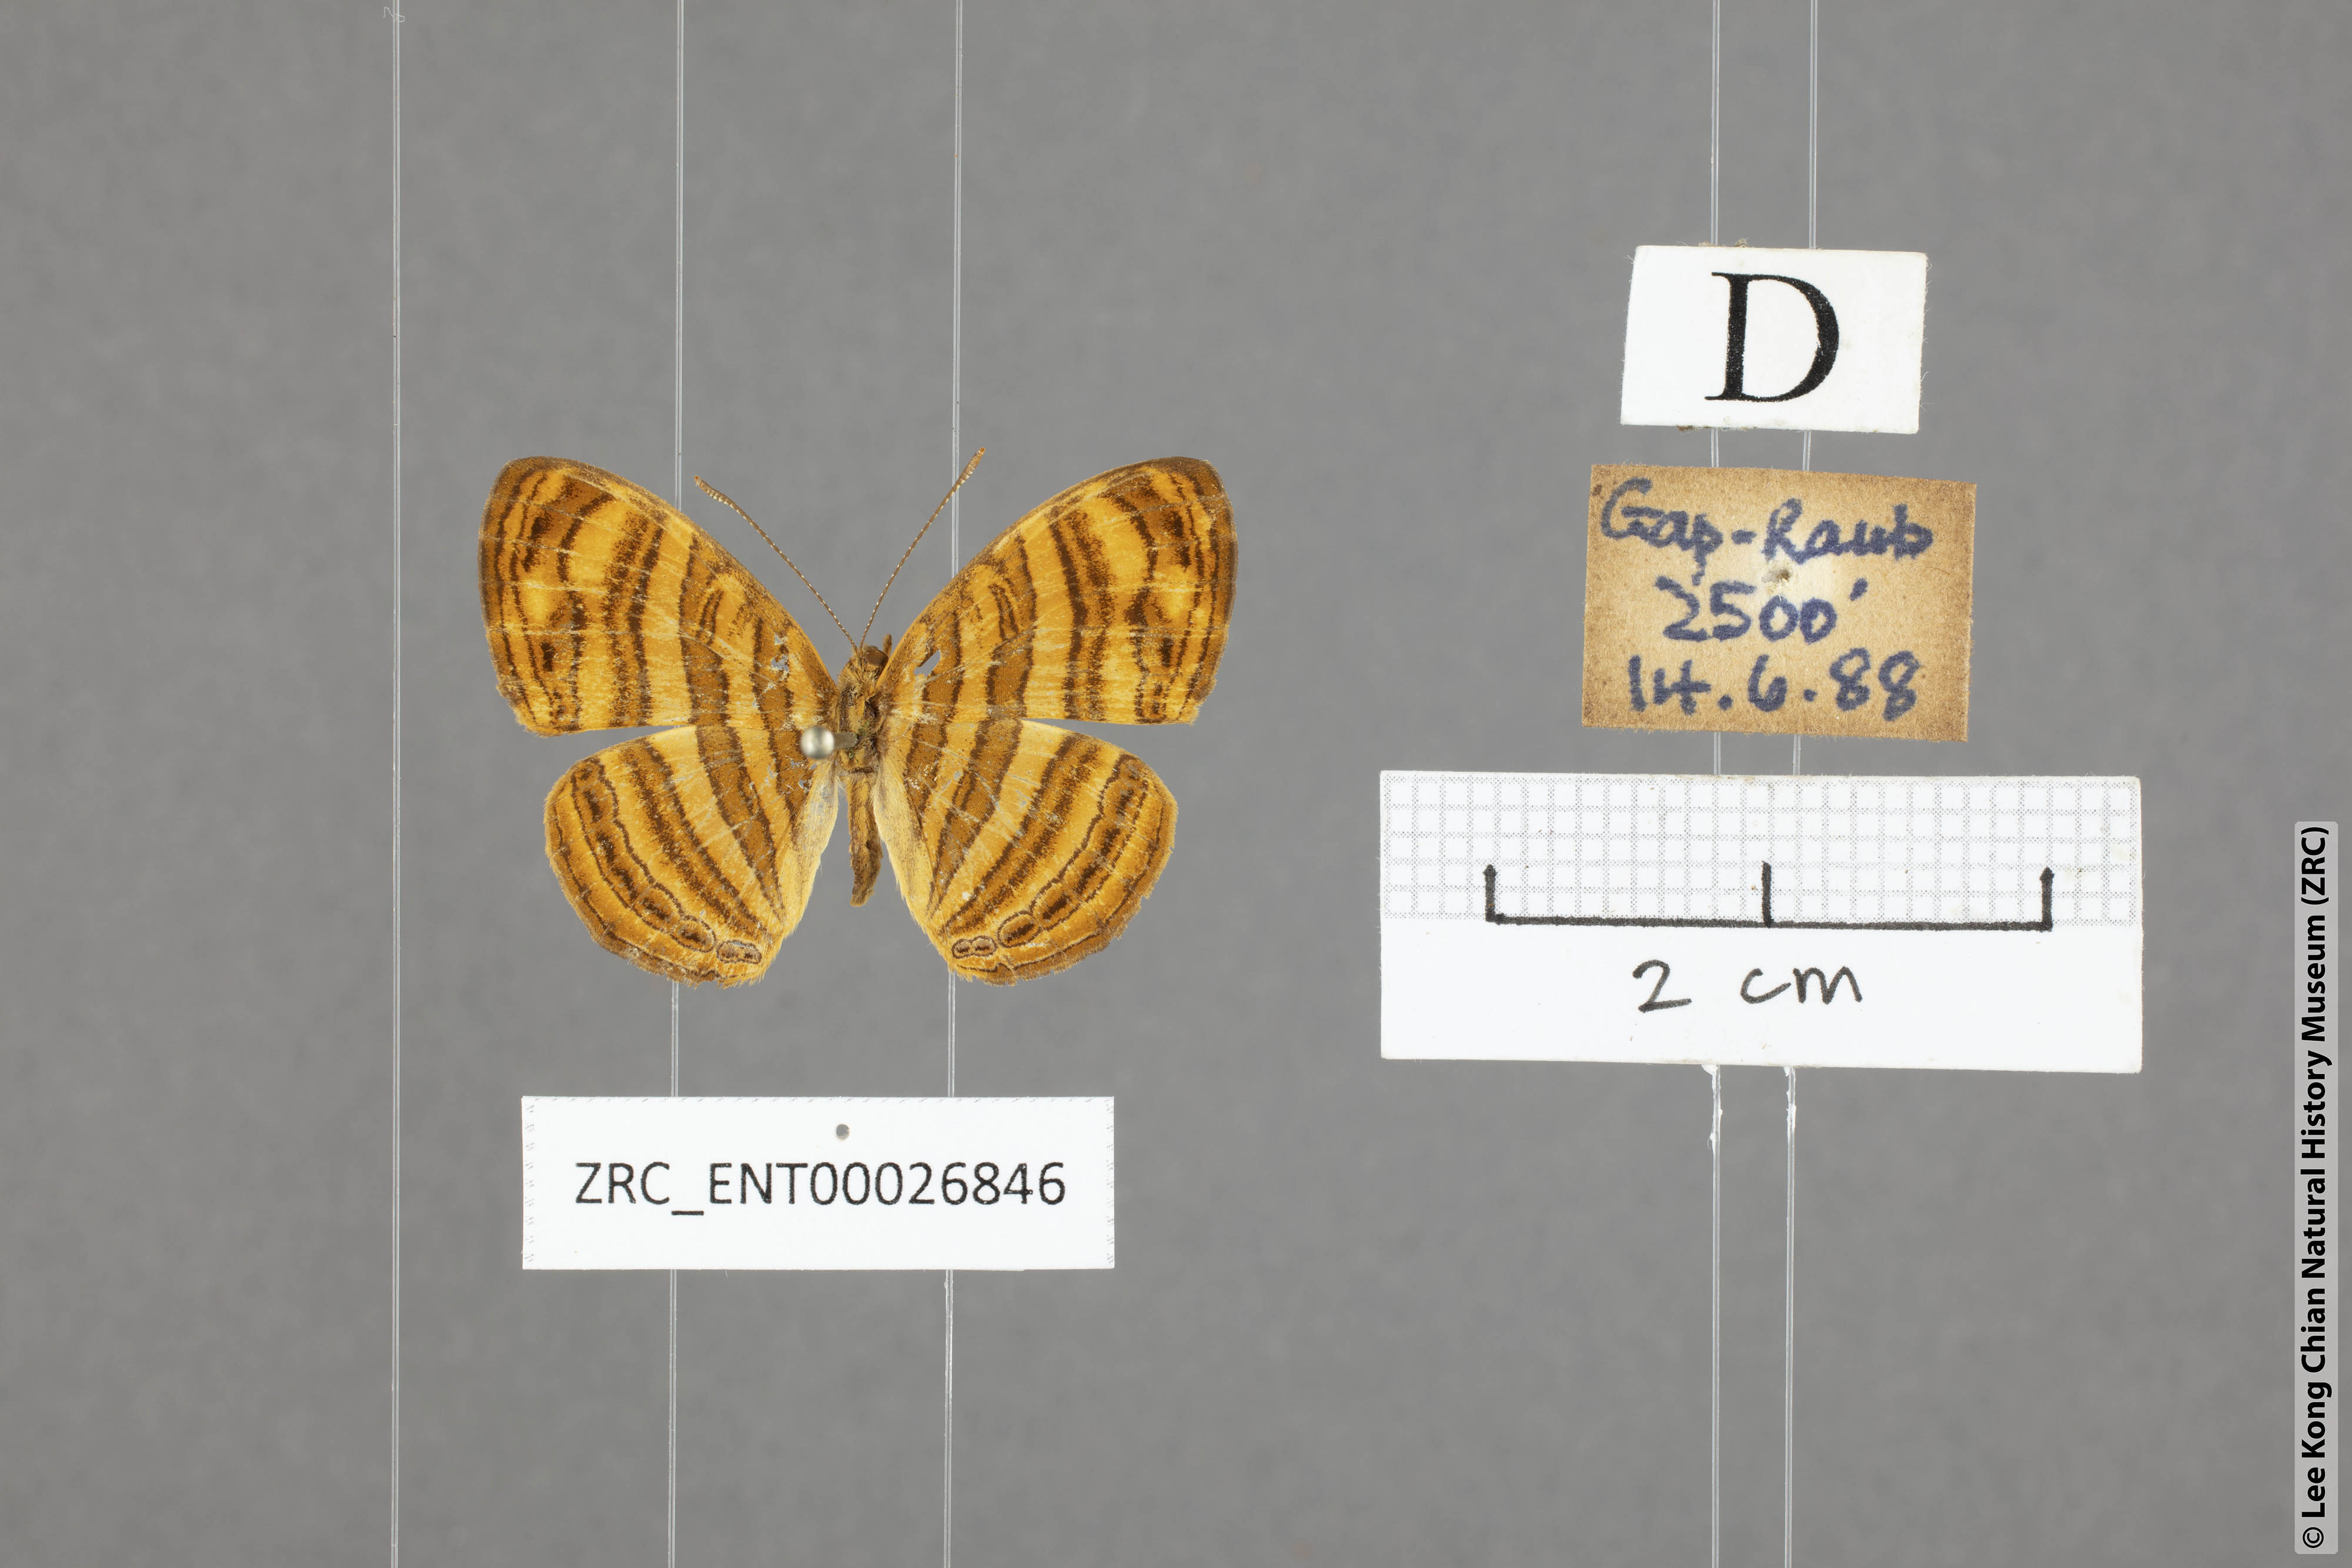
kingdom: Animalia
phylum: Arthropoda
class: Insecta
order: Lepidoptera
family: Nymphalidae
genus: Chersonesia
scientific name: Chersonesia peraka
